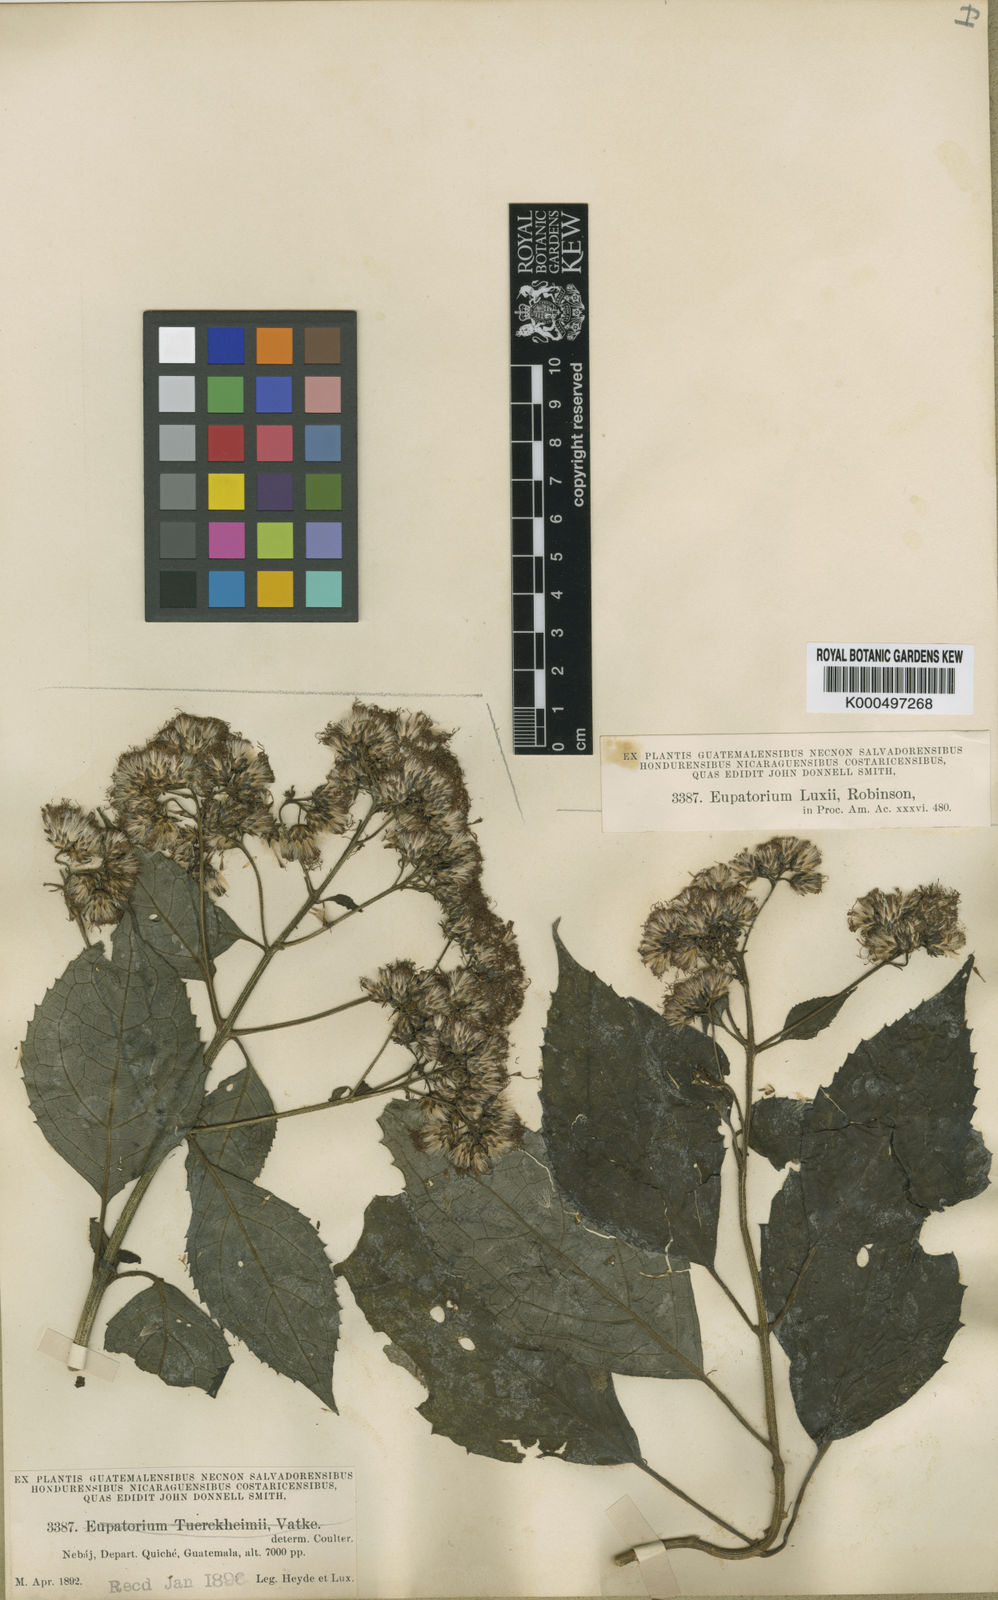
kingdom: Plantae
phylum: Tracheophyta
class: Magnoliopsida
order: Asterales
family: Asteraceae
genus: Bartlettina
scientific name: Bartlettina luxii
